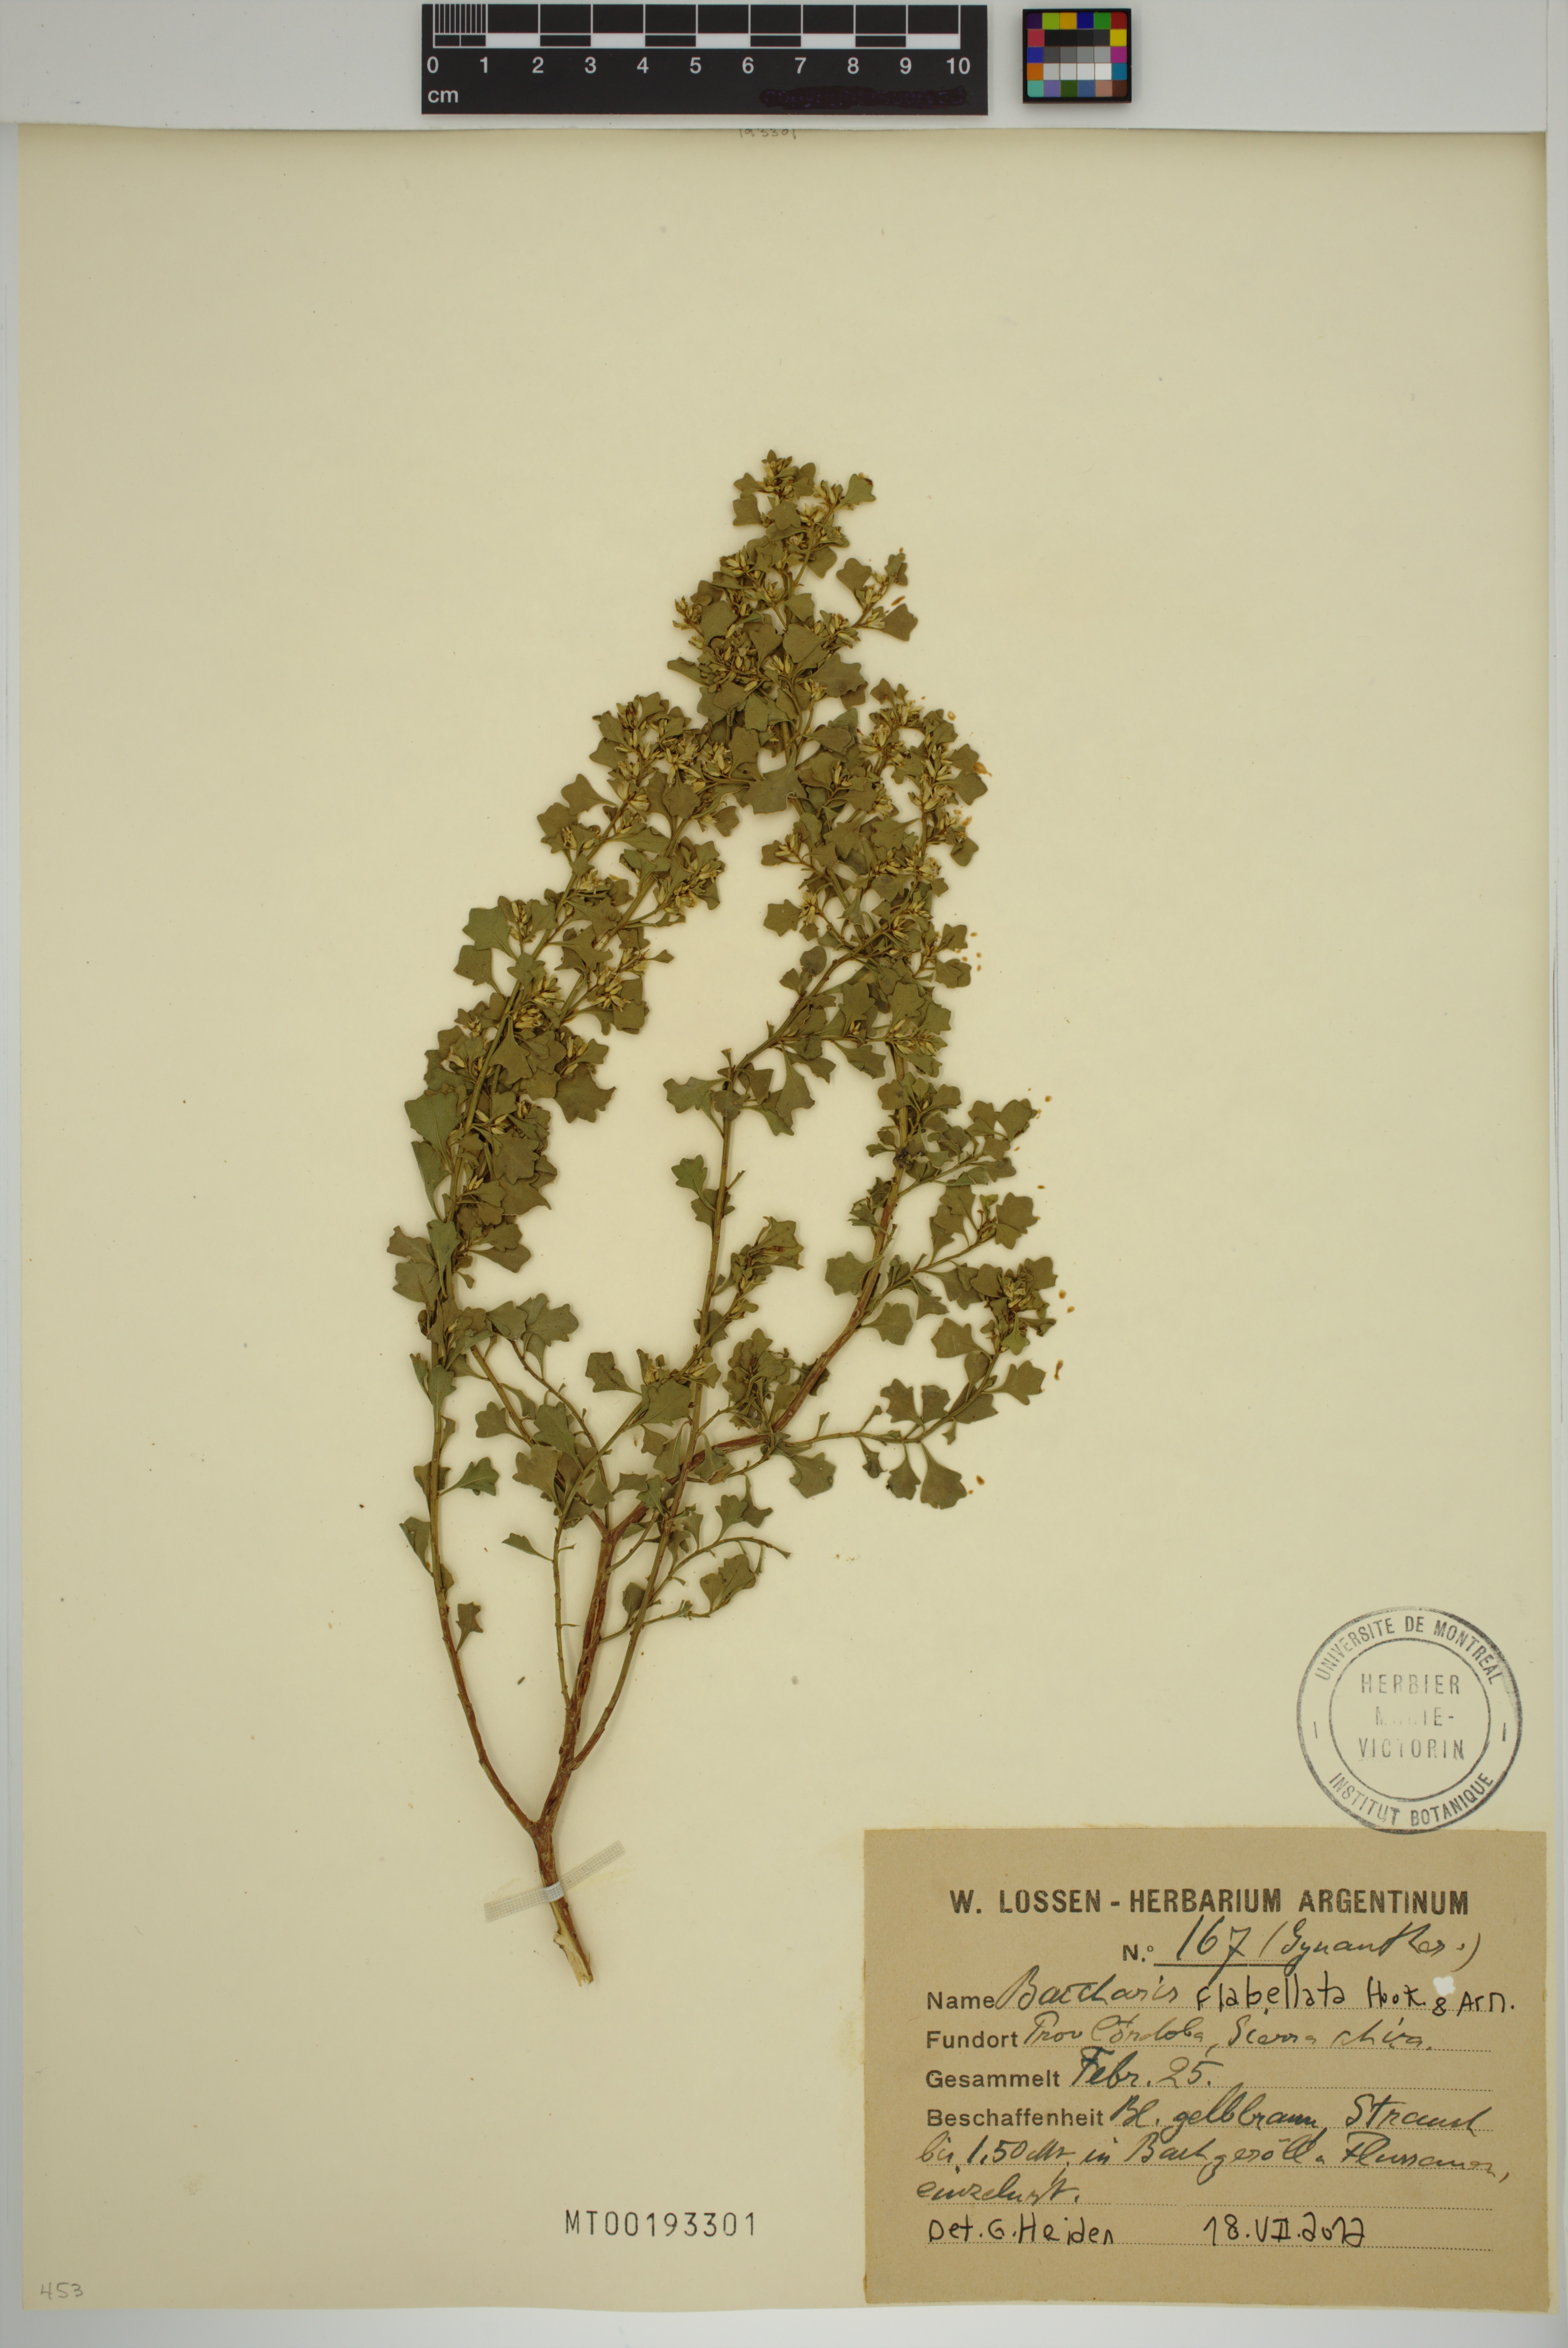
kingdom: Plantae
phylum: Tracheophyta
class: Magnoliopsida
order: Asterales
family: Asteraceae
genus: Baccharis
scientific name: Baccharis flabellata
